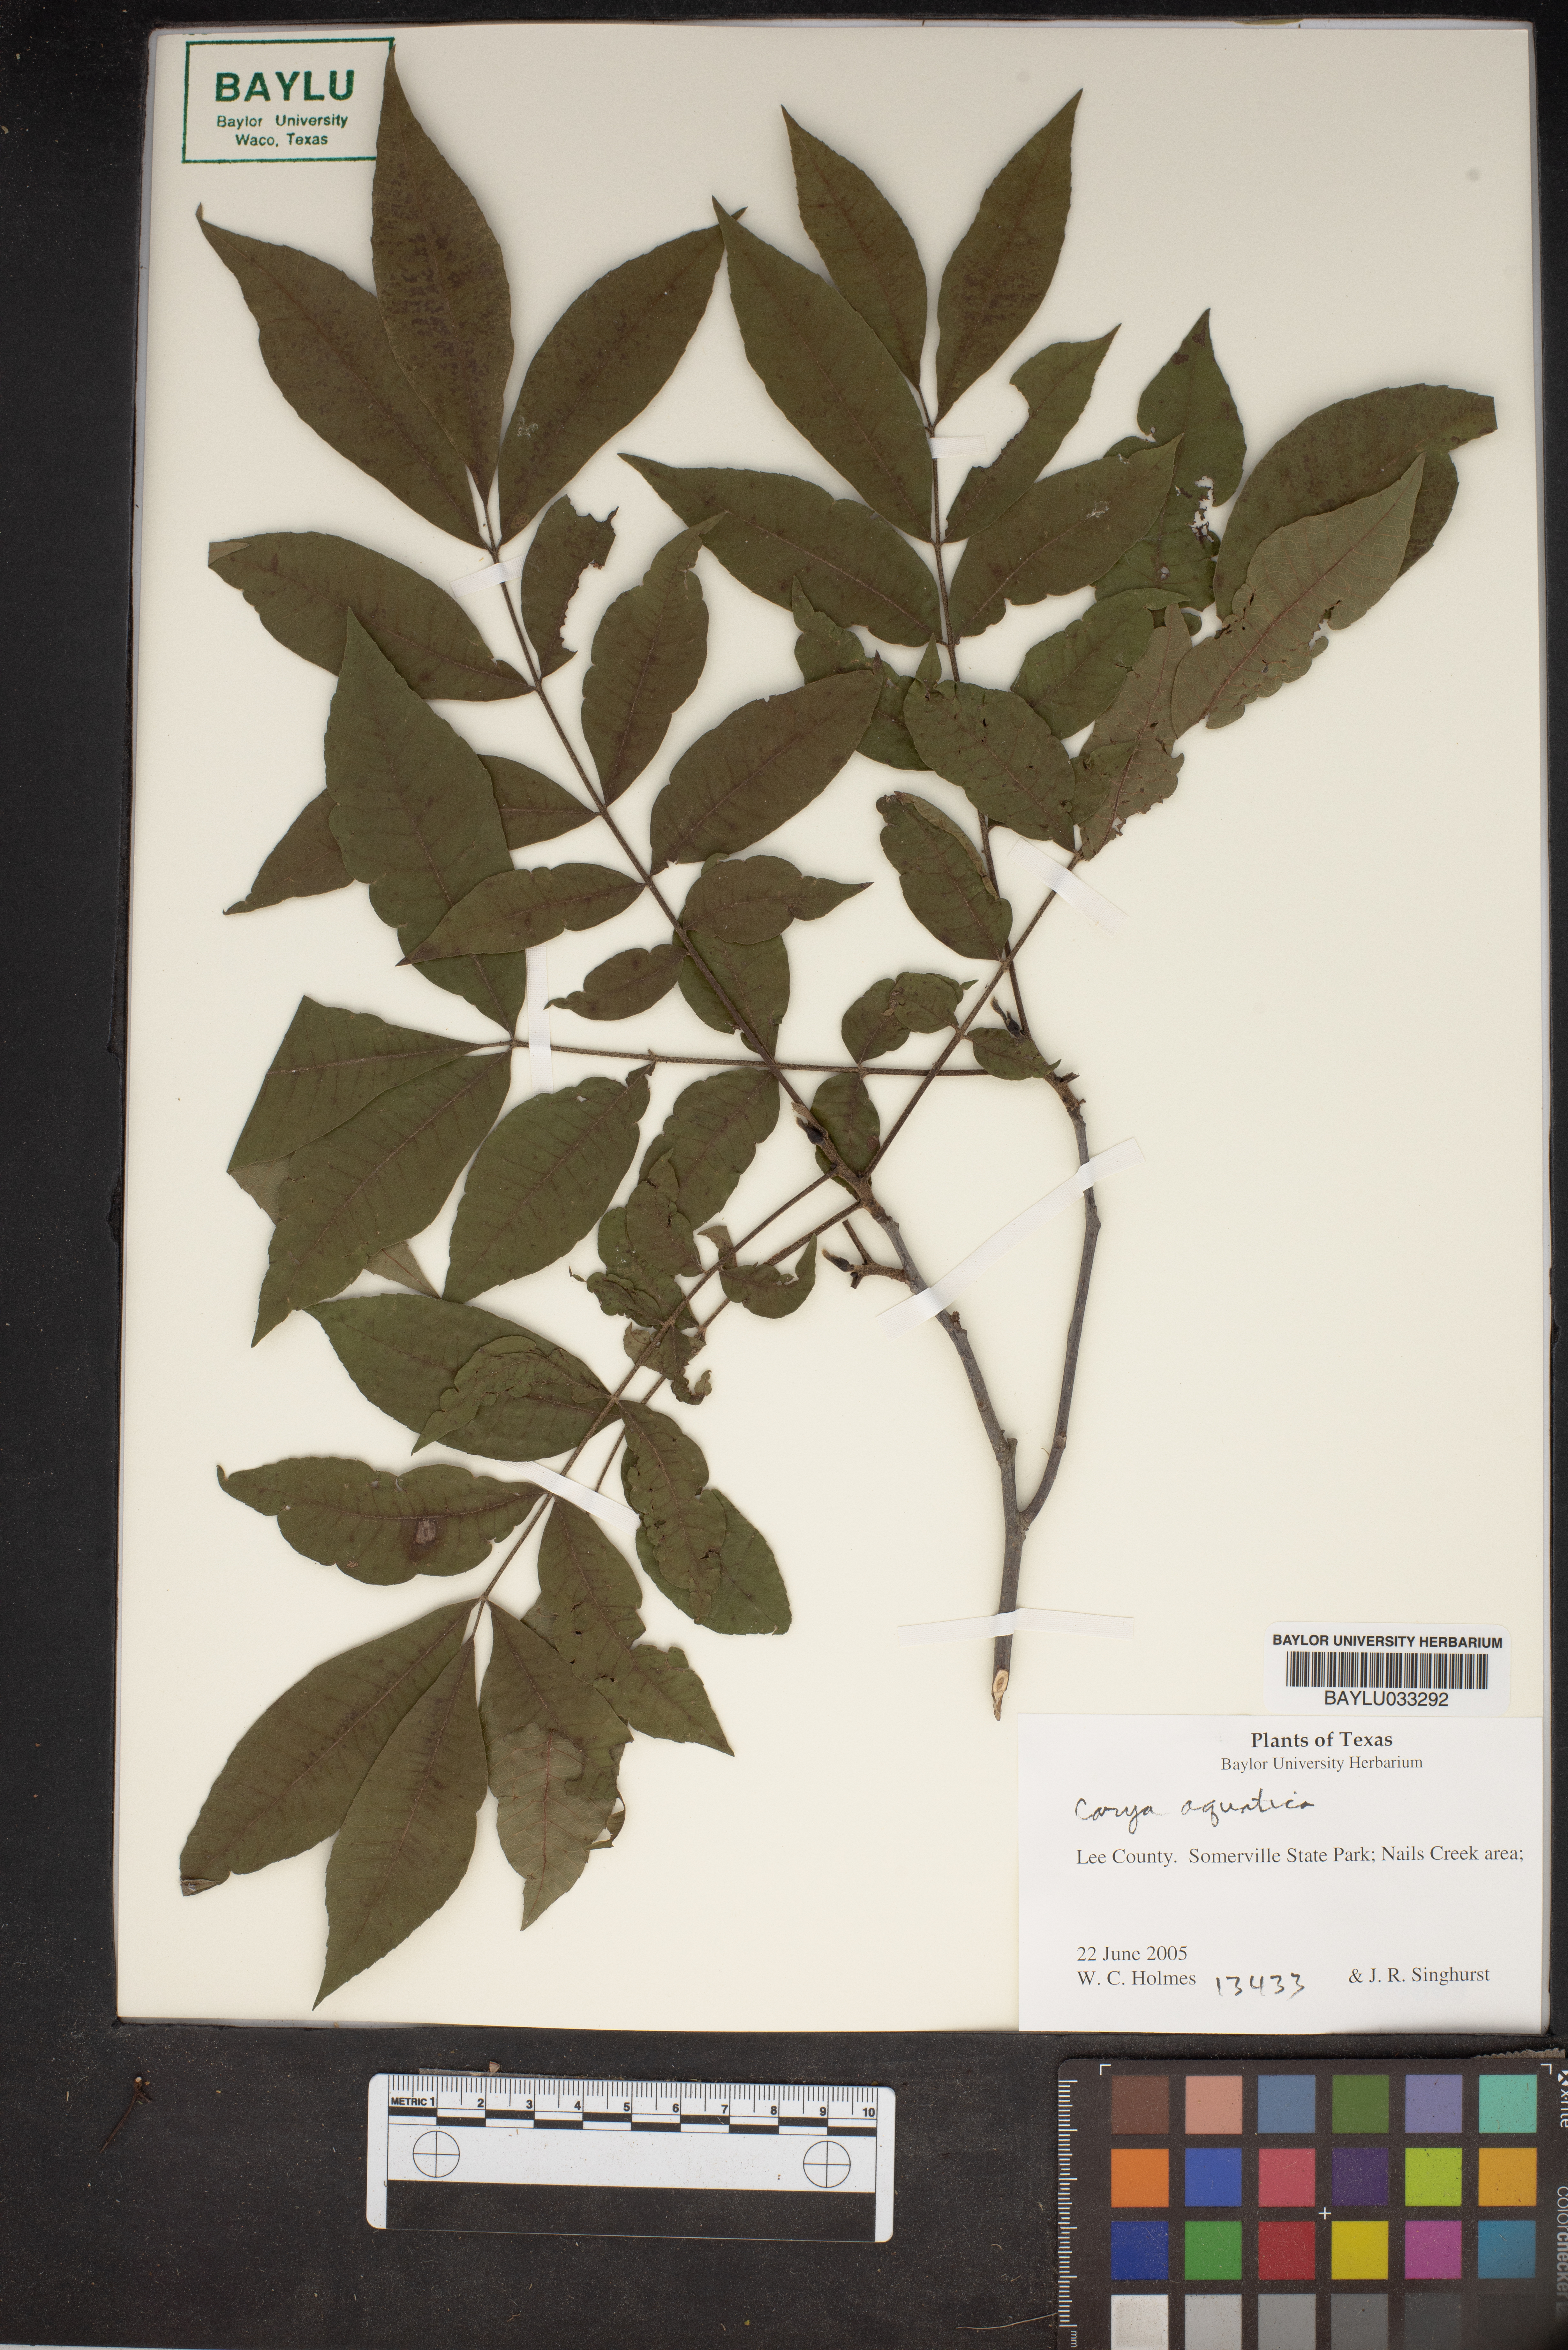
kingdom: Plantae
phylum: Tracheophyta
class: Magnoliopsida
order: Fagales
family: Juglandaceae
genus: Carya
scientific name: Carya aquatica
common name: Water hickory
